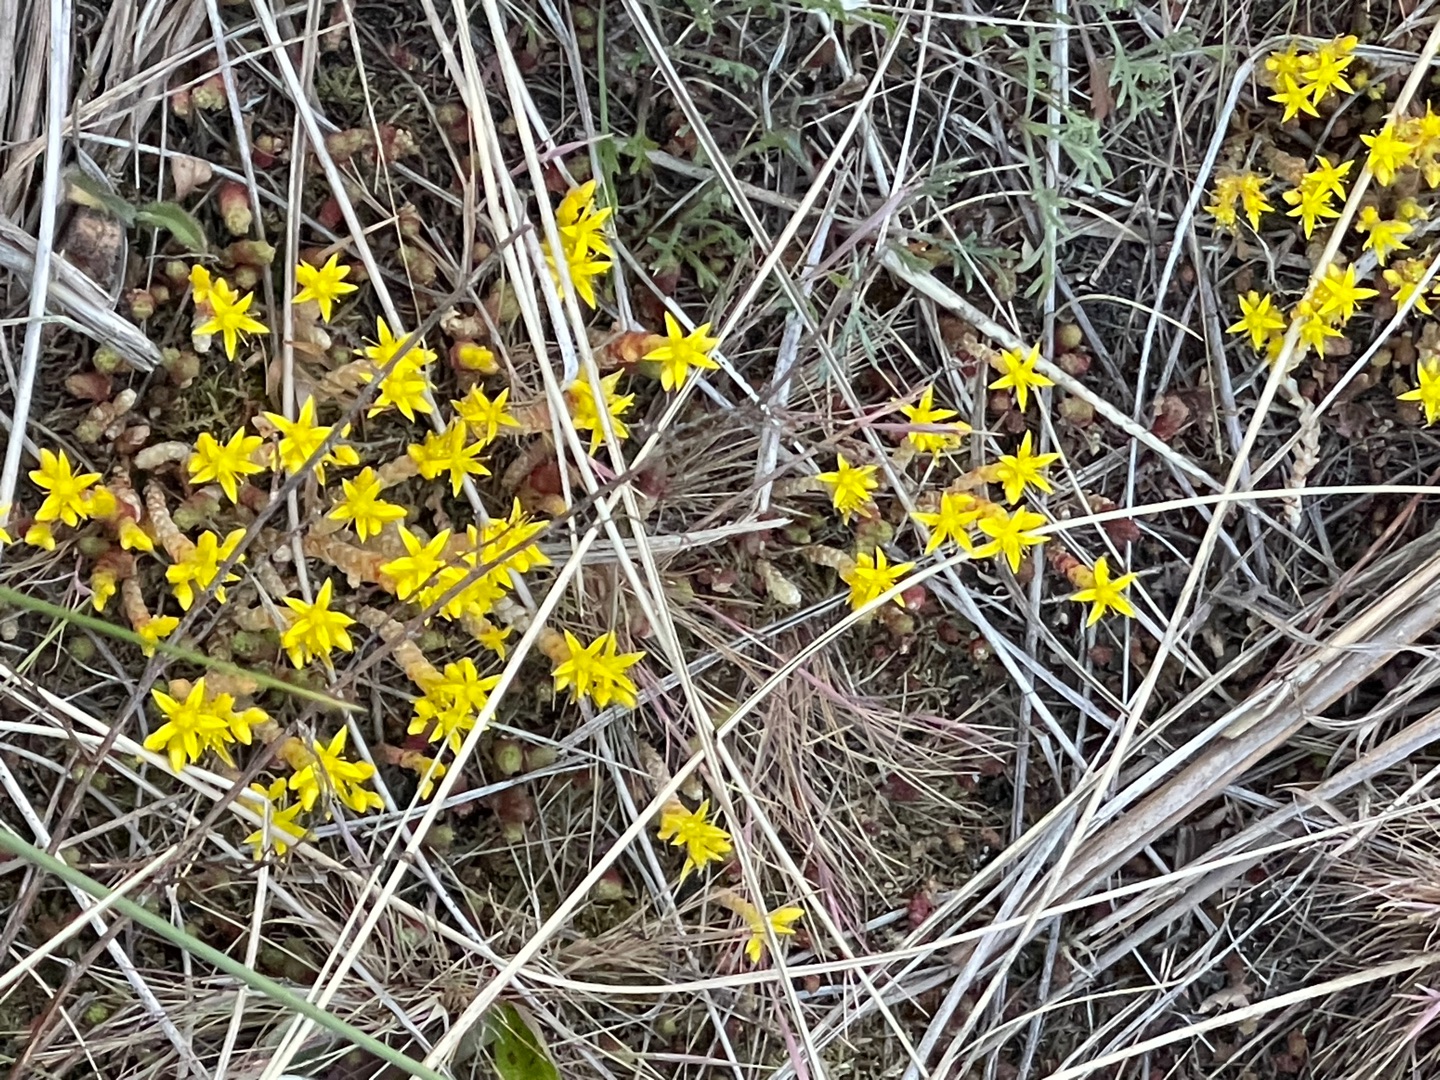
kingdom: Plantae
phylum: Tracheophyta
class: Magnoliopsida
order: Saxifragales
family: Crassulaceae
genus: Sedum
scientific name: Sedum acre
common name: Bidende stenurt
